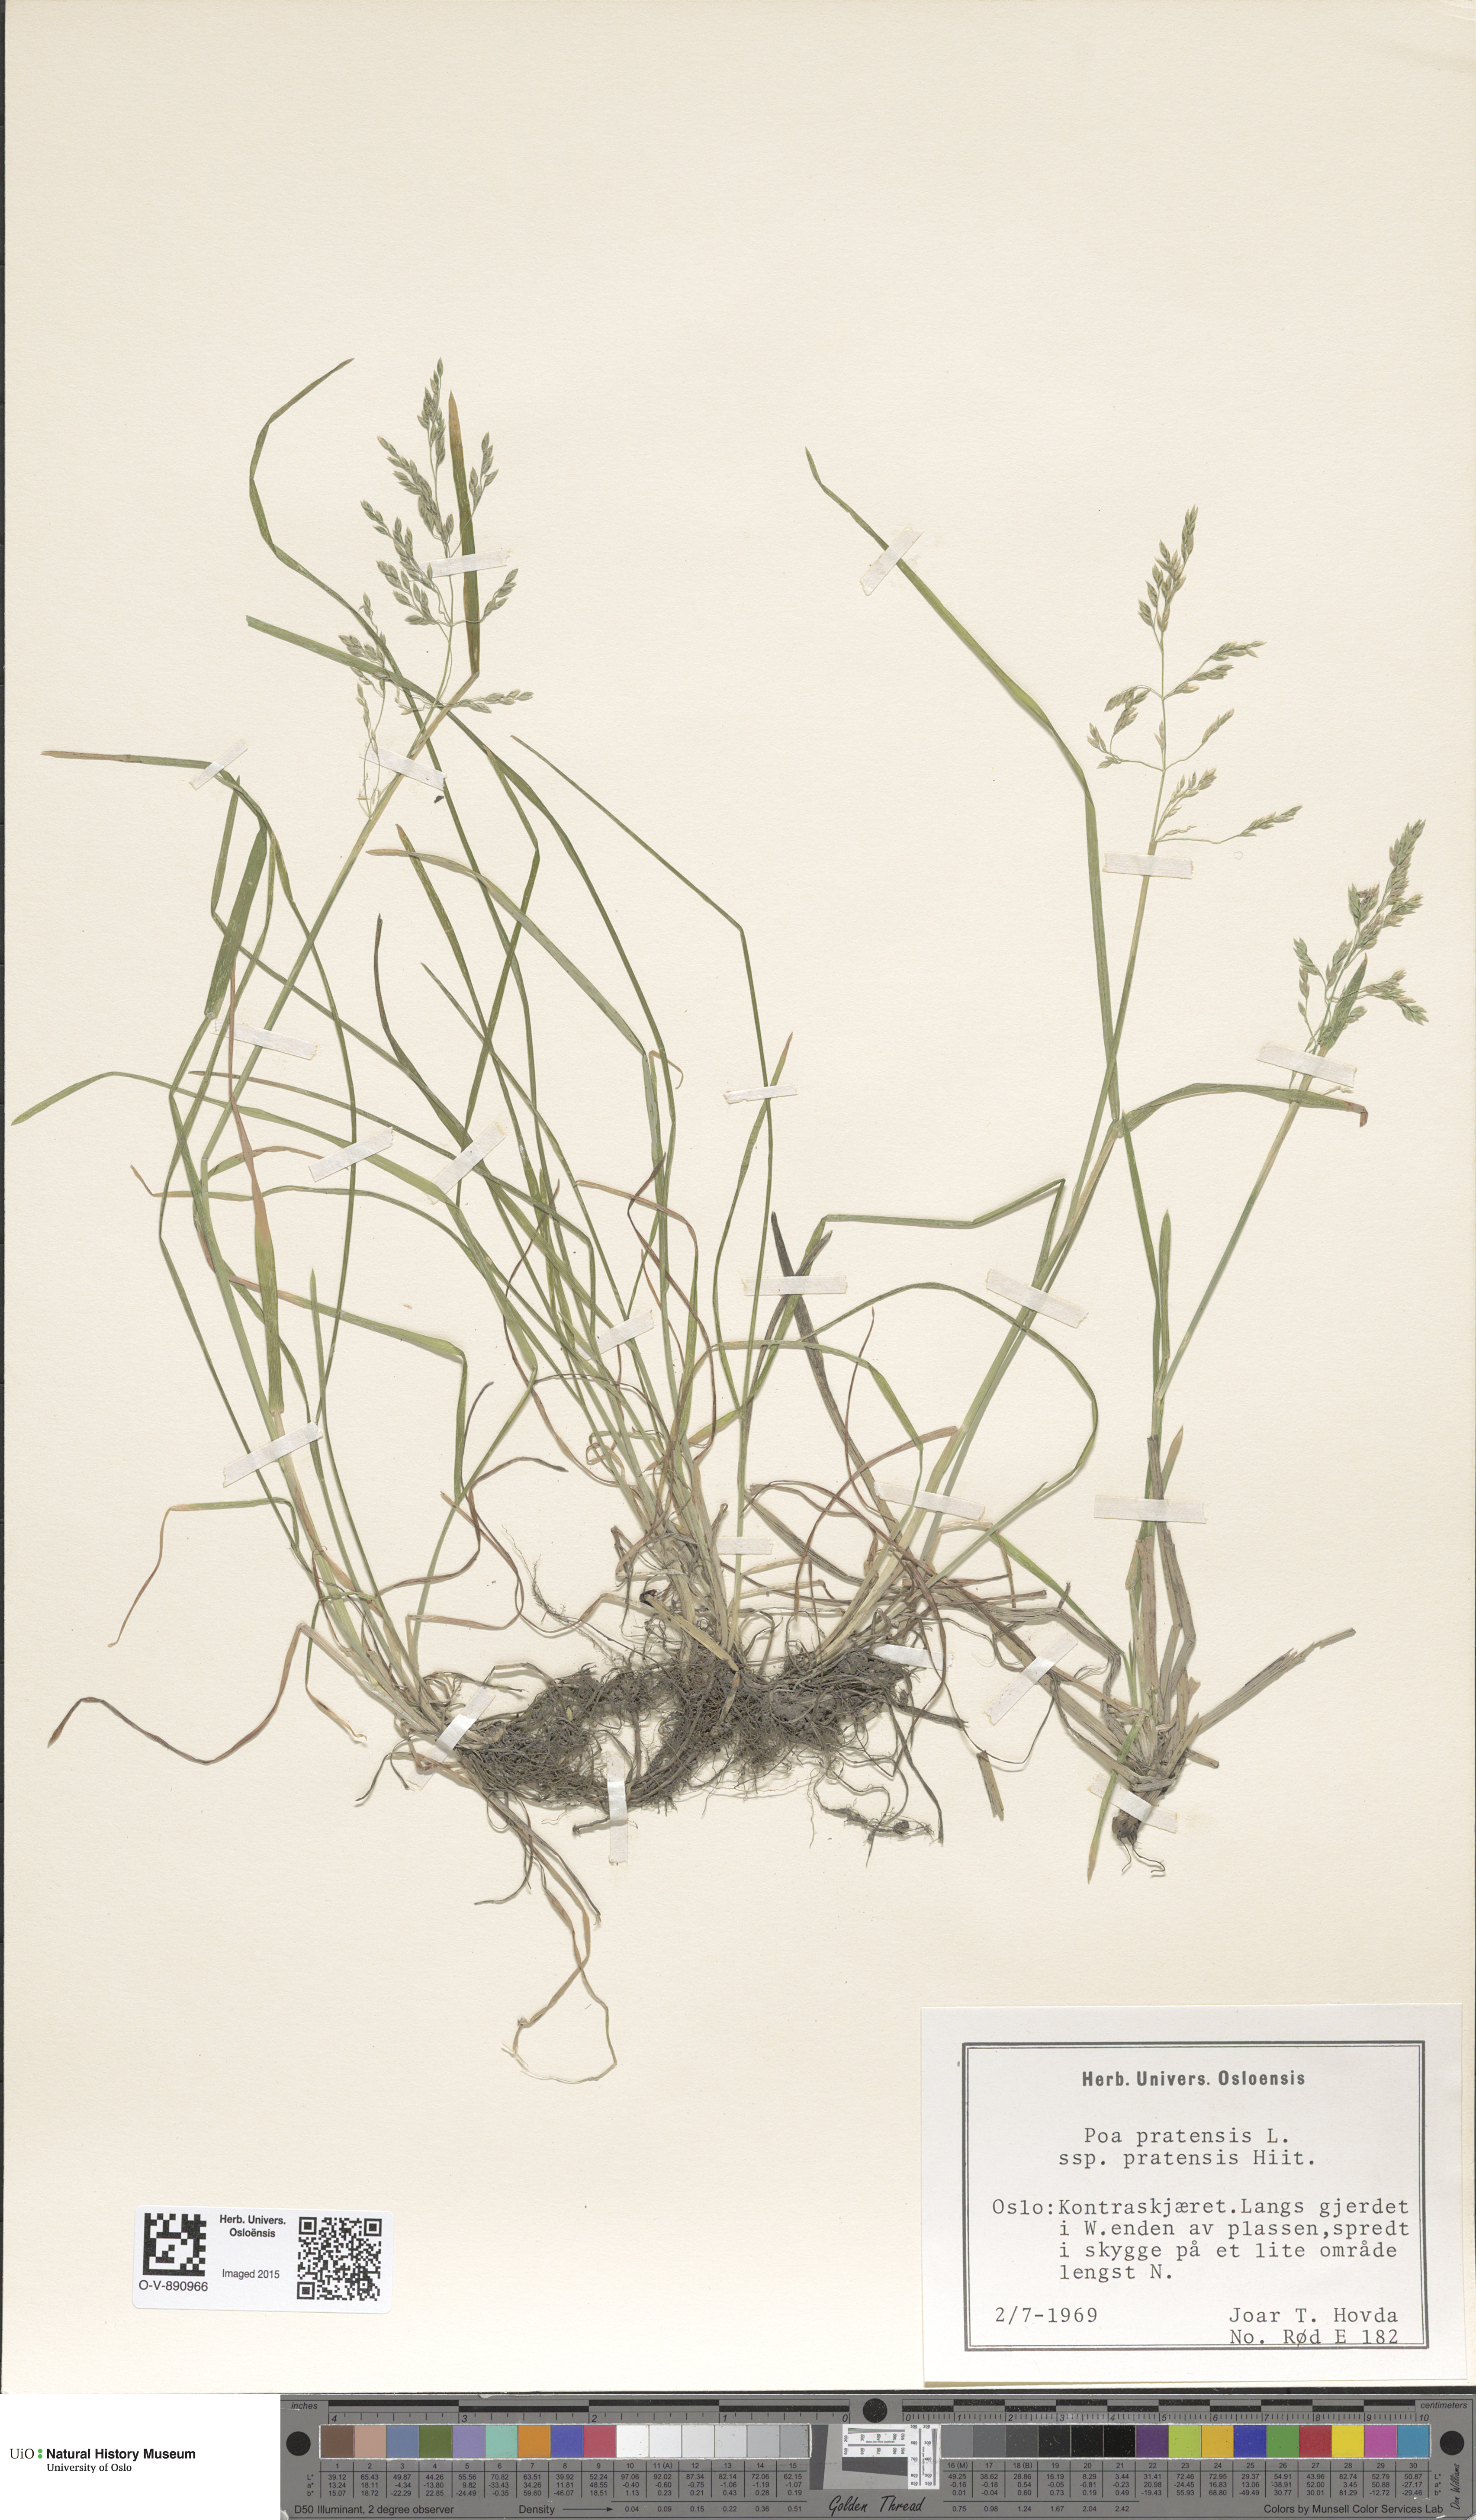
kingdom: Plantae
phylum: Tracheophyta
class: Liliopsida
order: Poales
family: Poaceae
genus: Poa
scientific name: Poa pratensis
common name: Kentucky bluegrass
